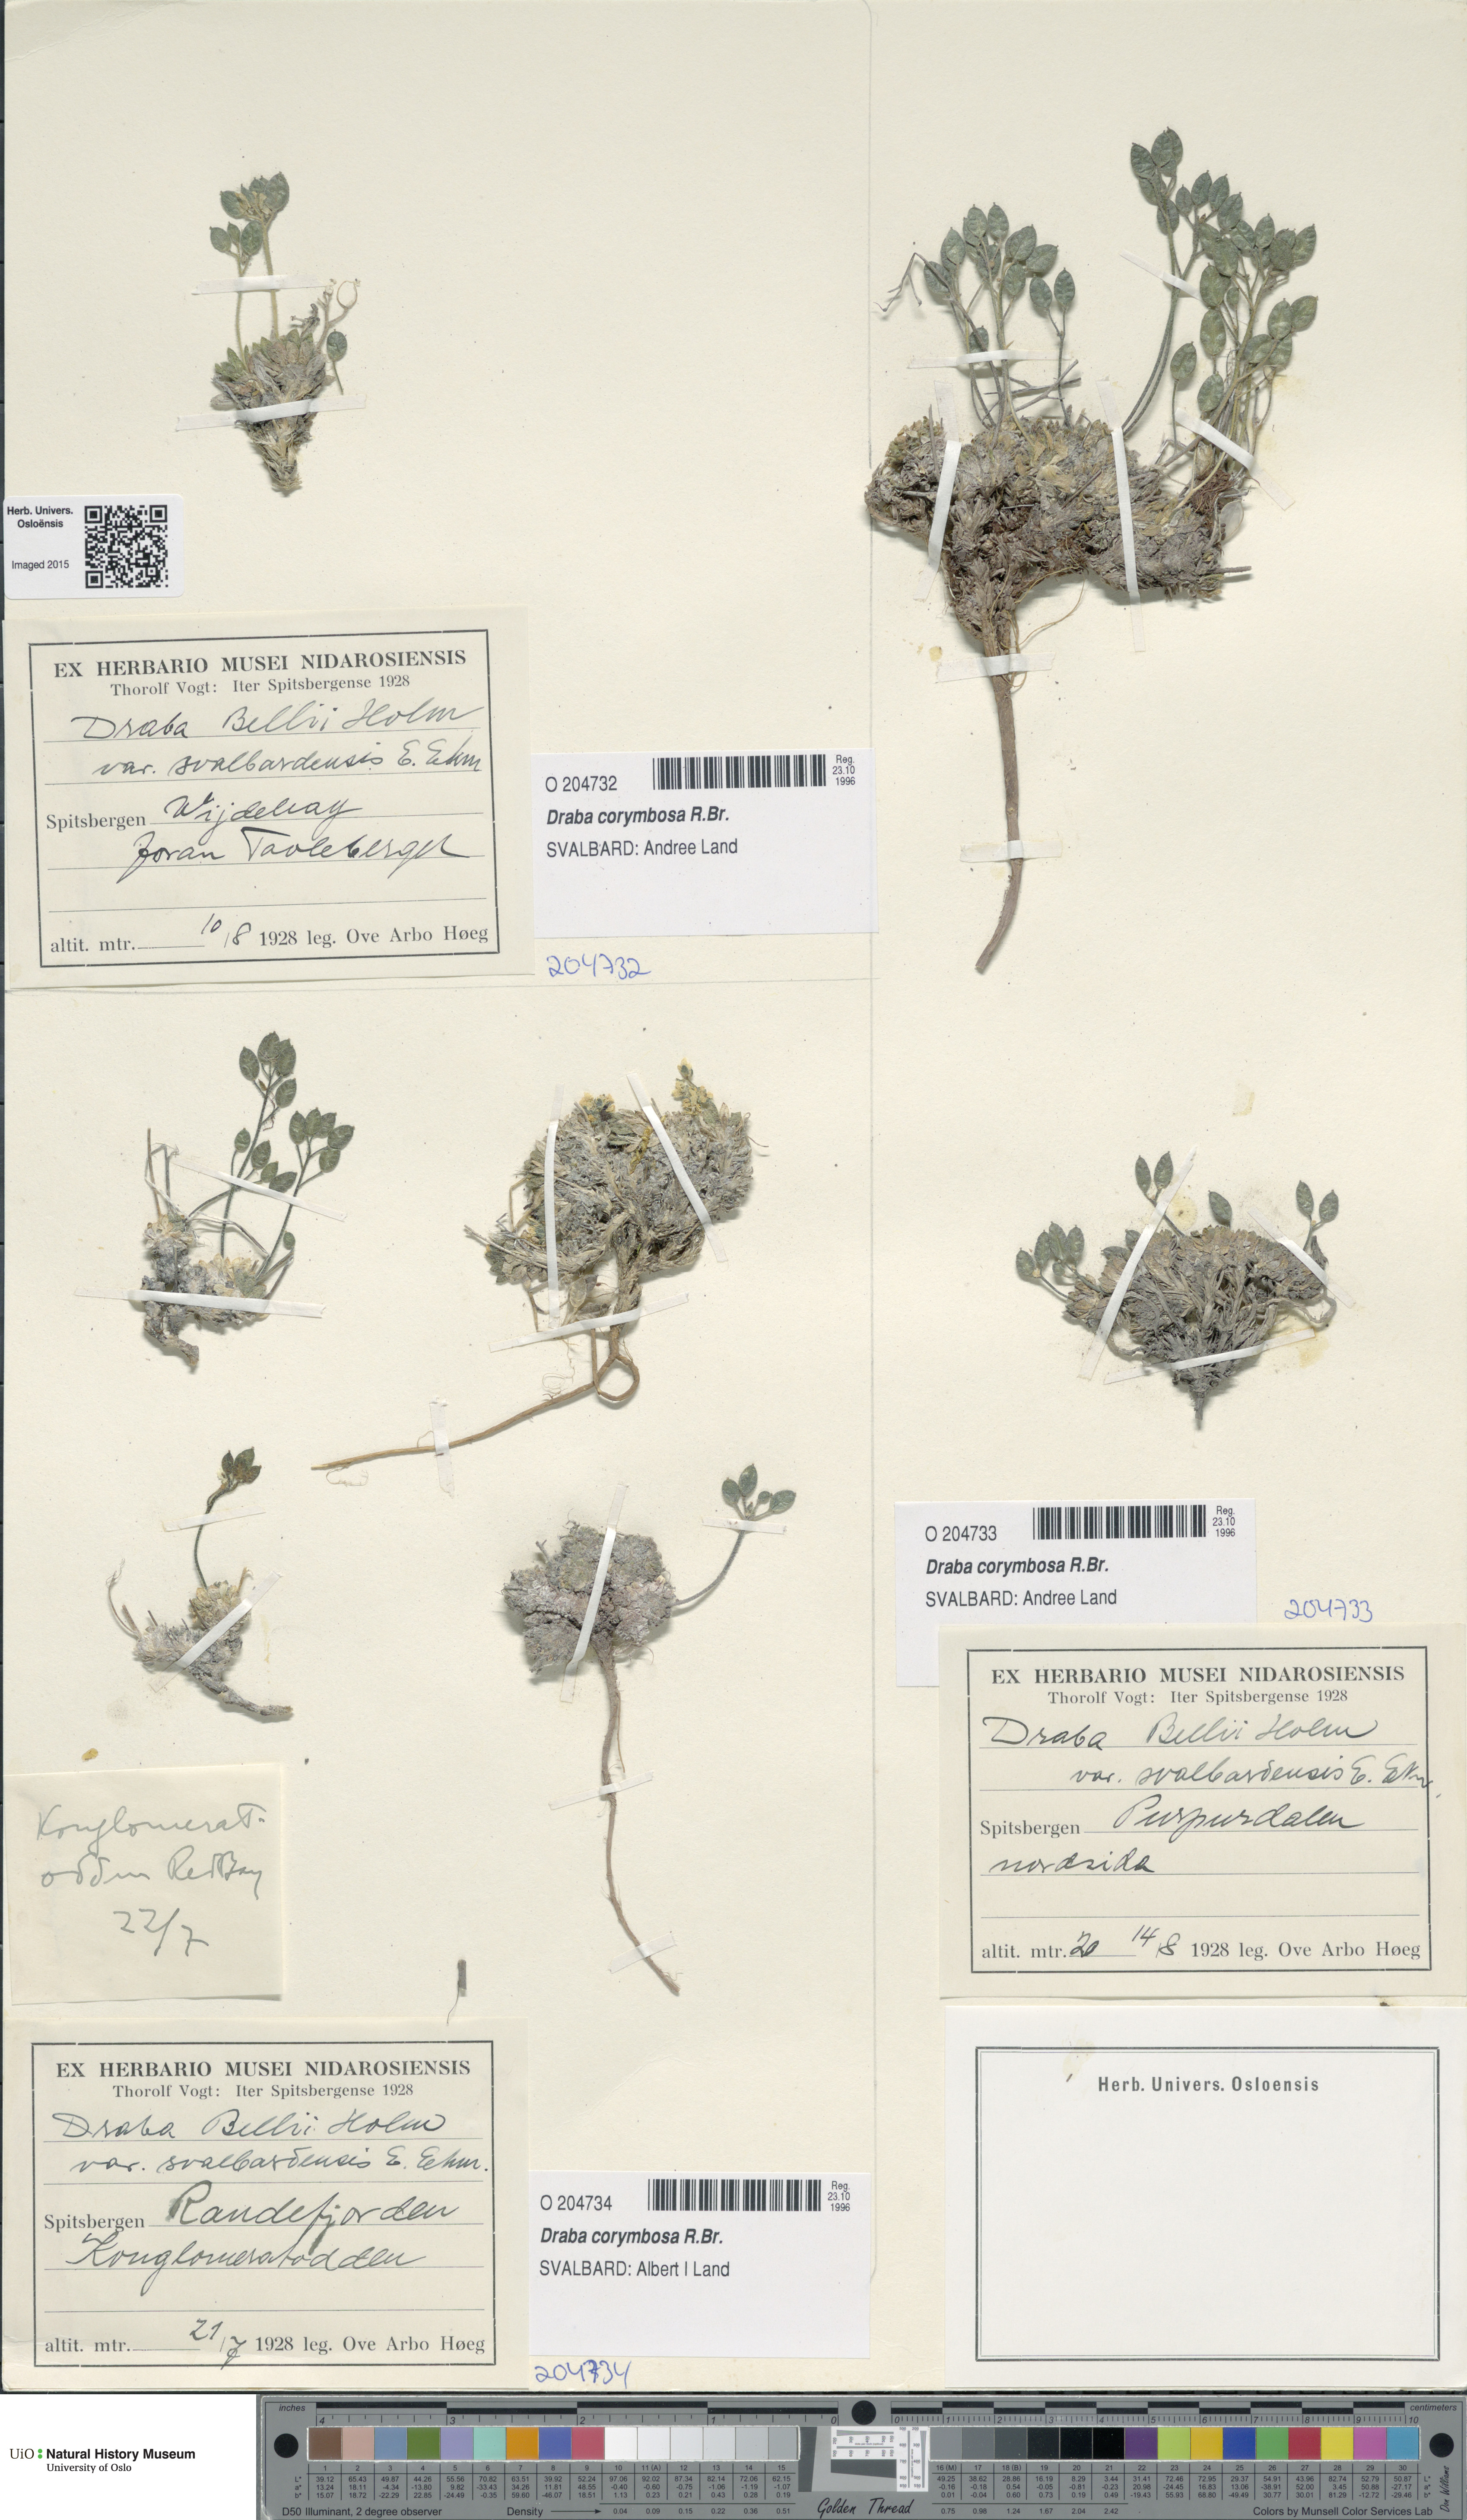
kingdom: Plantae
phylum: Tracheophyta
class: Magnoliopsida
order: Brassicales
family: Brassicaceae
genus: Draba
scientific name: Draba corymbosa
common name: Cushion whitlow-grass
